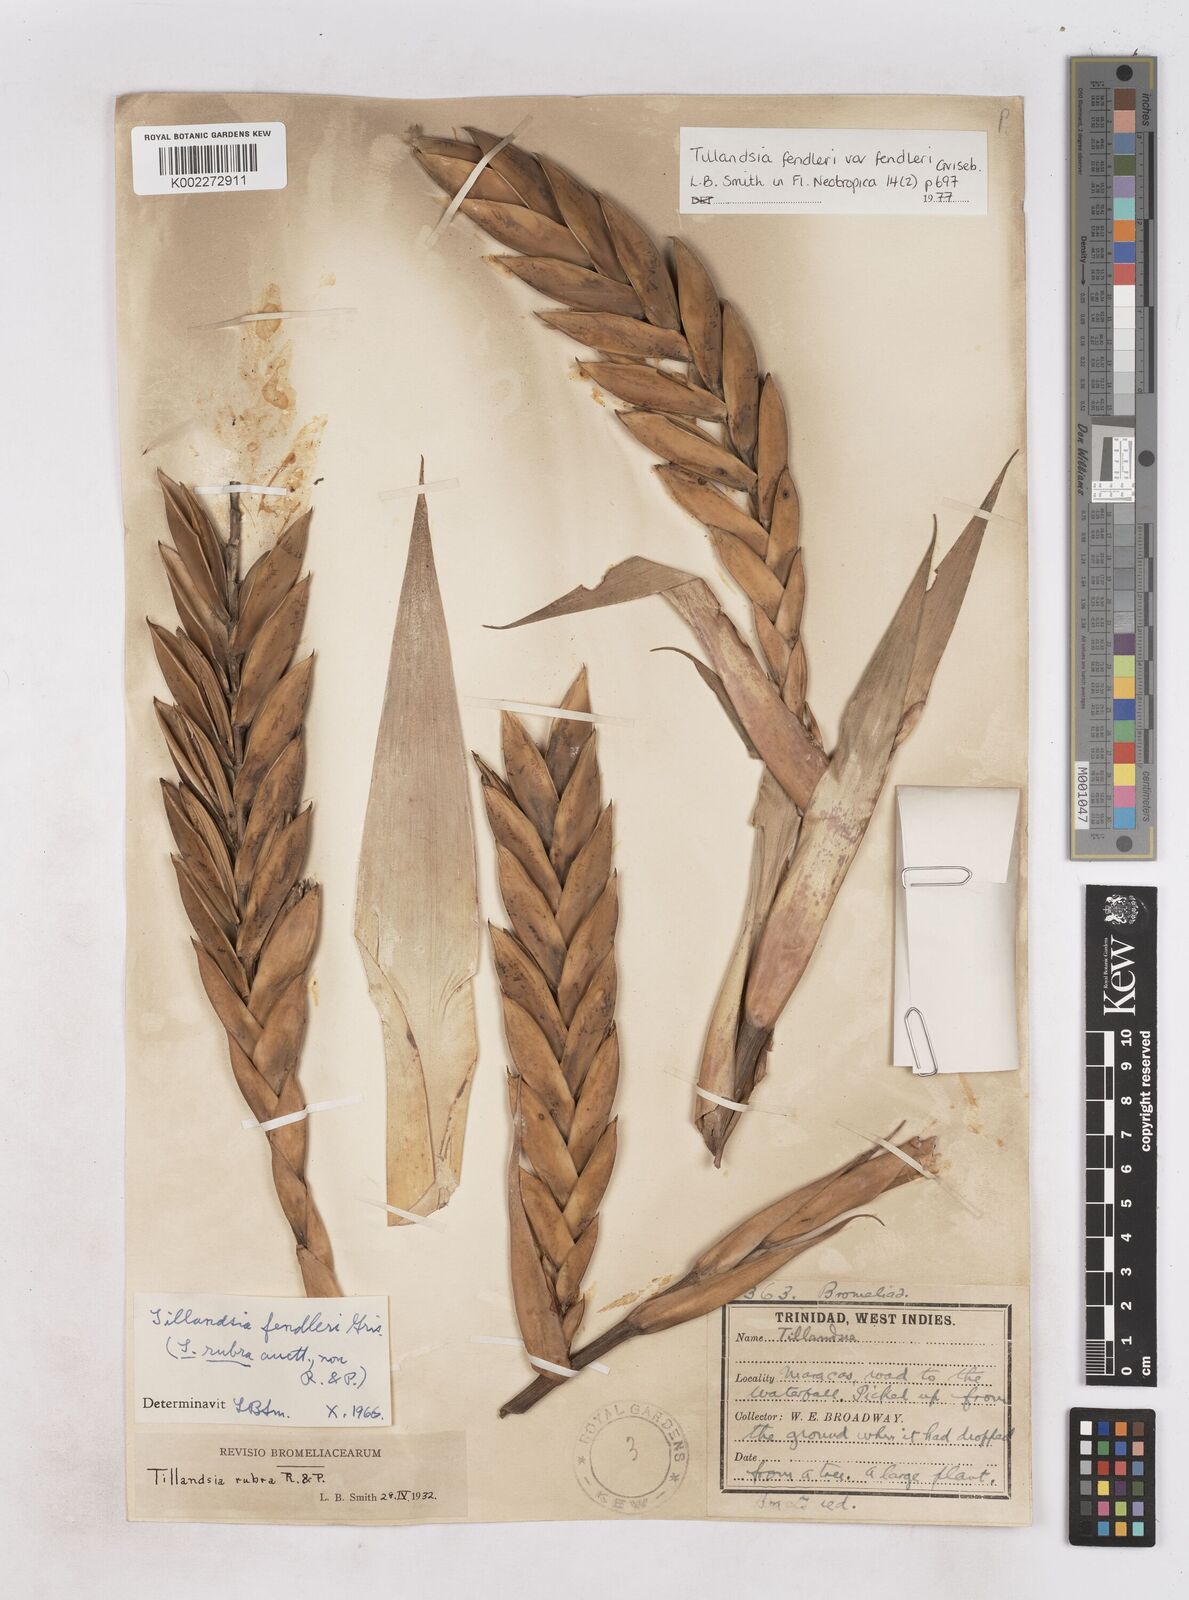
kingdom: Plantae
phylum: Tracheophyta
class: Liliopsida
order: Poales
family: Bromeliaceae
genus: Tillandsia
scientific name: Tillandsia fendleri
